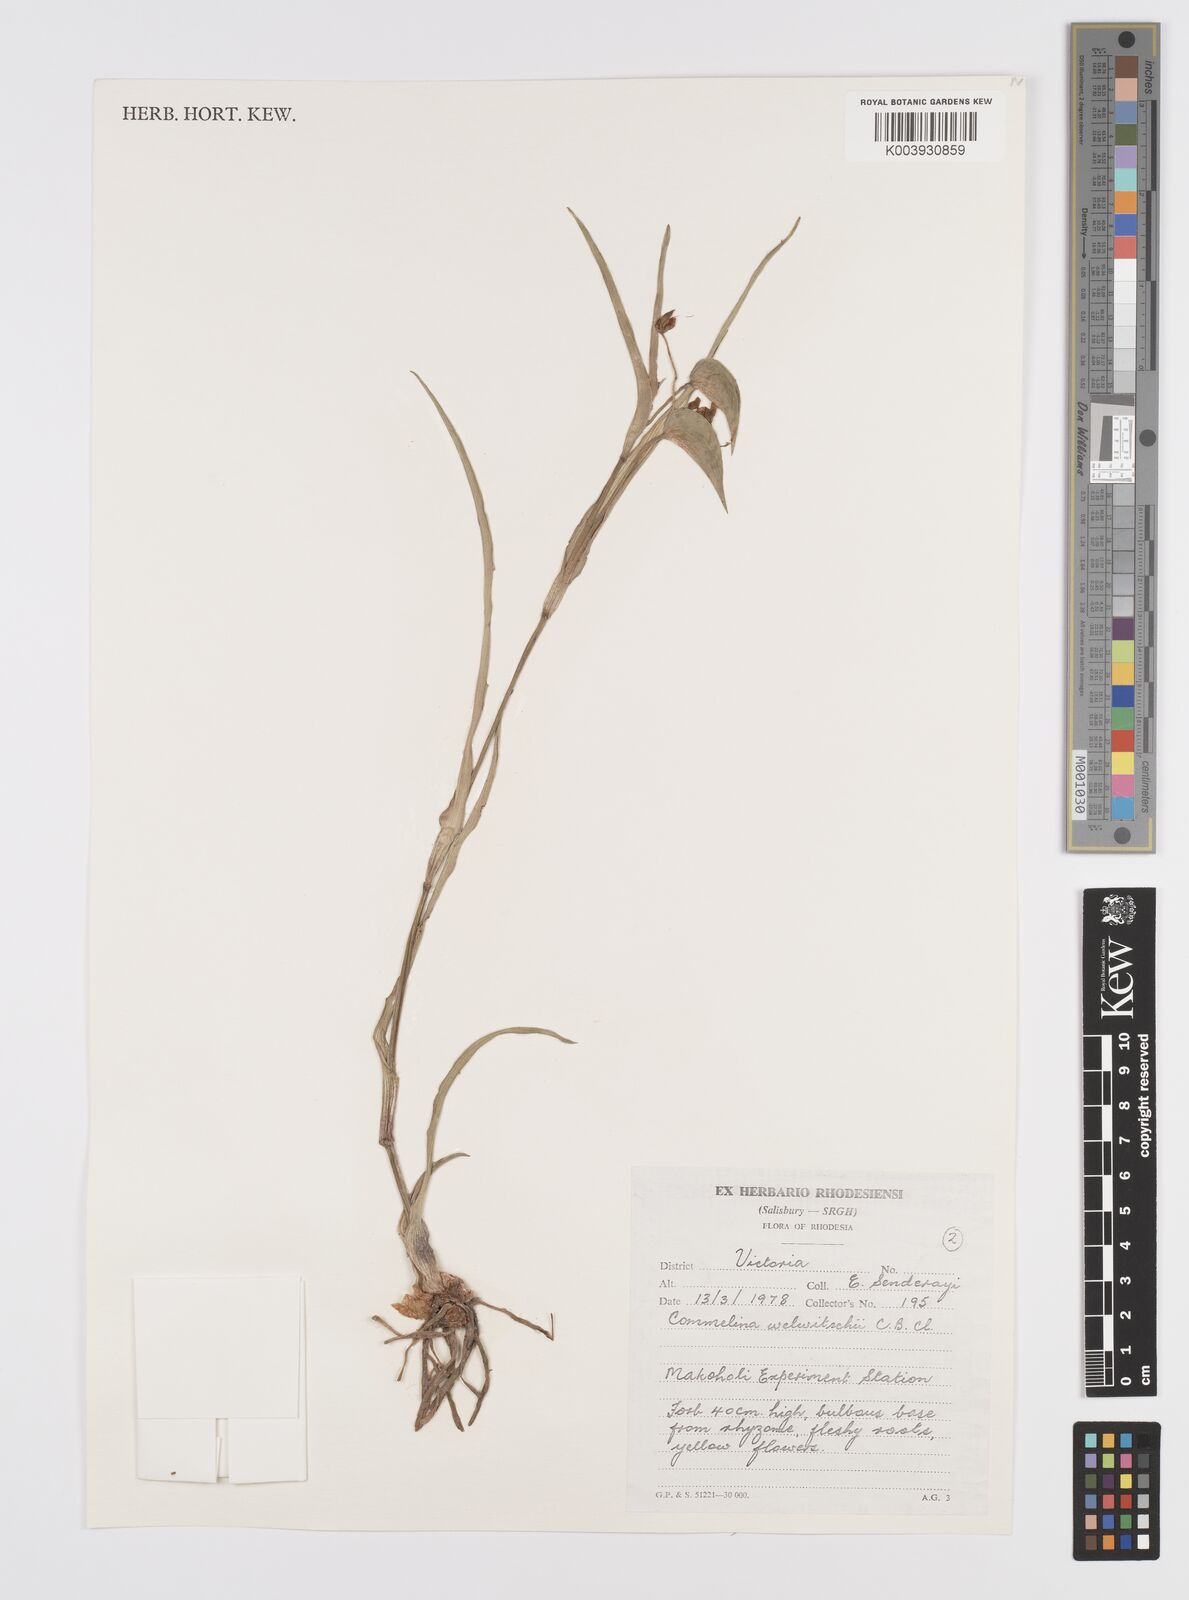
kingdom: Plantae
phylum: Tracheophyta
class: Liliopsida
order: Commelinales
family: Commelinaceae
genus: Commelina
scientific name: Commelina welwitschii
